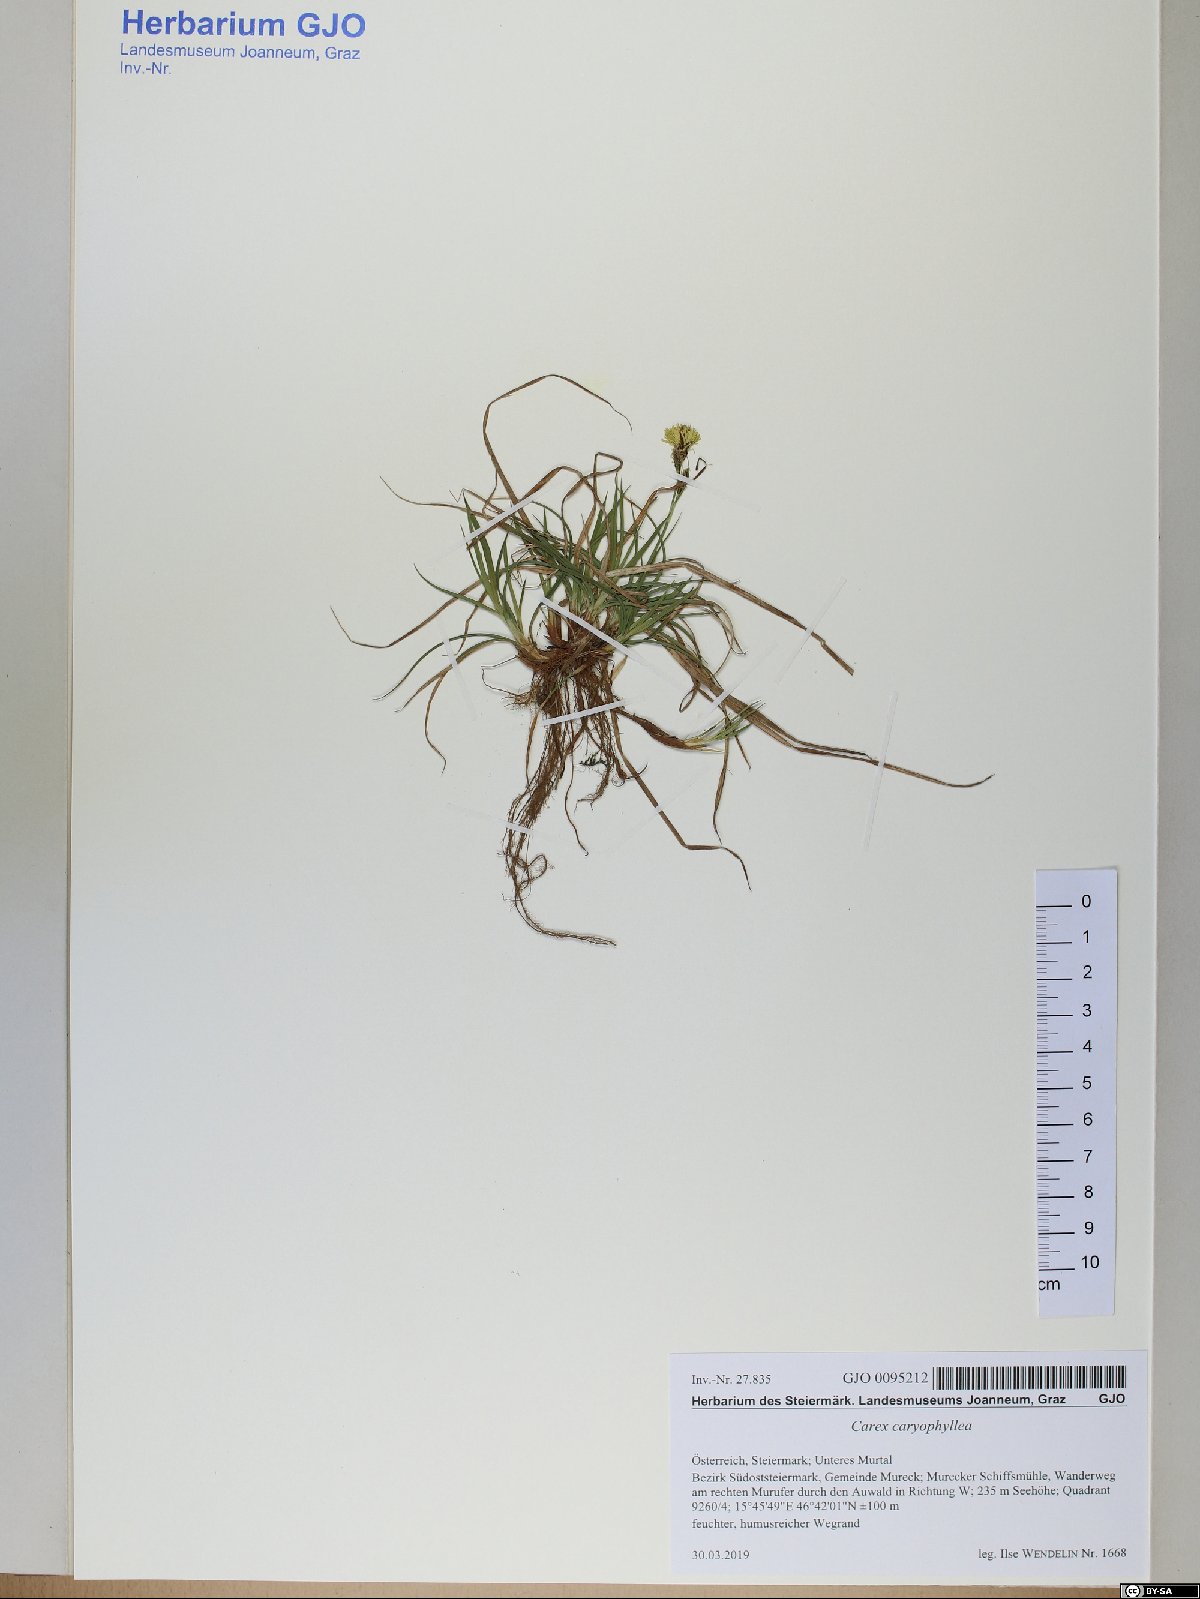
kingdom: Plantae
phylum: Tracheophyta
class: Liliopsida
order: Poales
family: Cyperaceae
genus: Carex
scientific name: Carex caryophyllea
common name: Spring sedge
